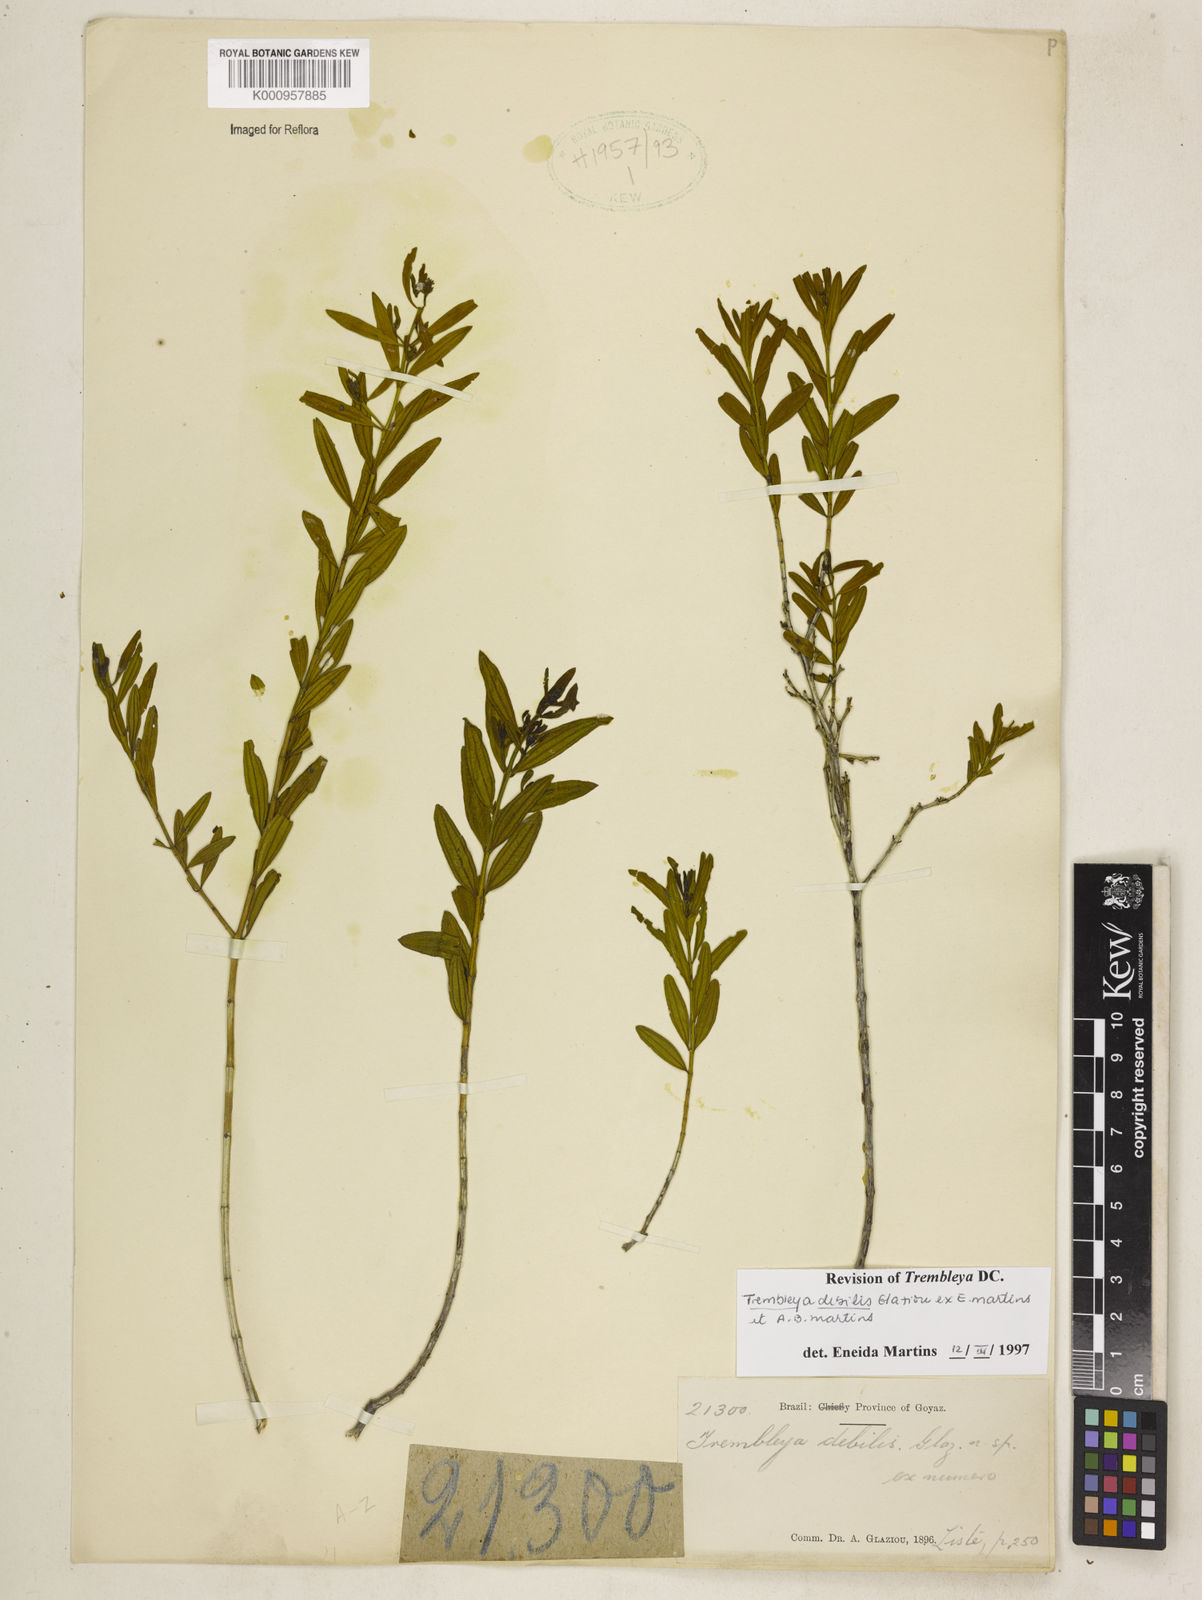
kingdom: Plantae
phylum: Tracheophyta
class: Magnoliopsida
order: Myrtales
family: Melastomataceae
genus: Microlicia
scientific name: Microlicia
